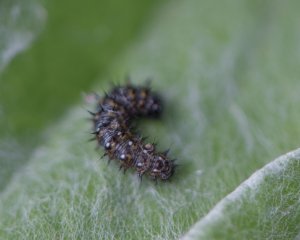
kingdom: Animalia
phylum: Arthropoda
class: Insecta
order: Lepidoptera
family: Nymphalidae
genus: Vanessa
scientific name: Vanessa virginiensis
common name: American Lady
